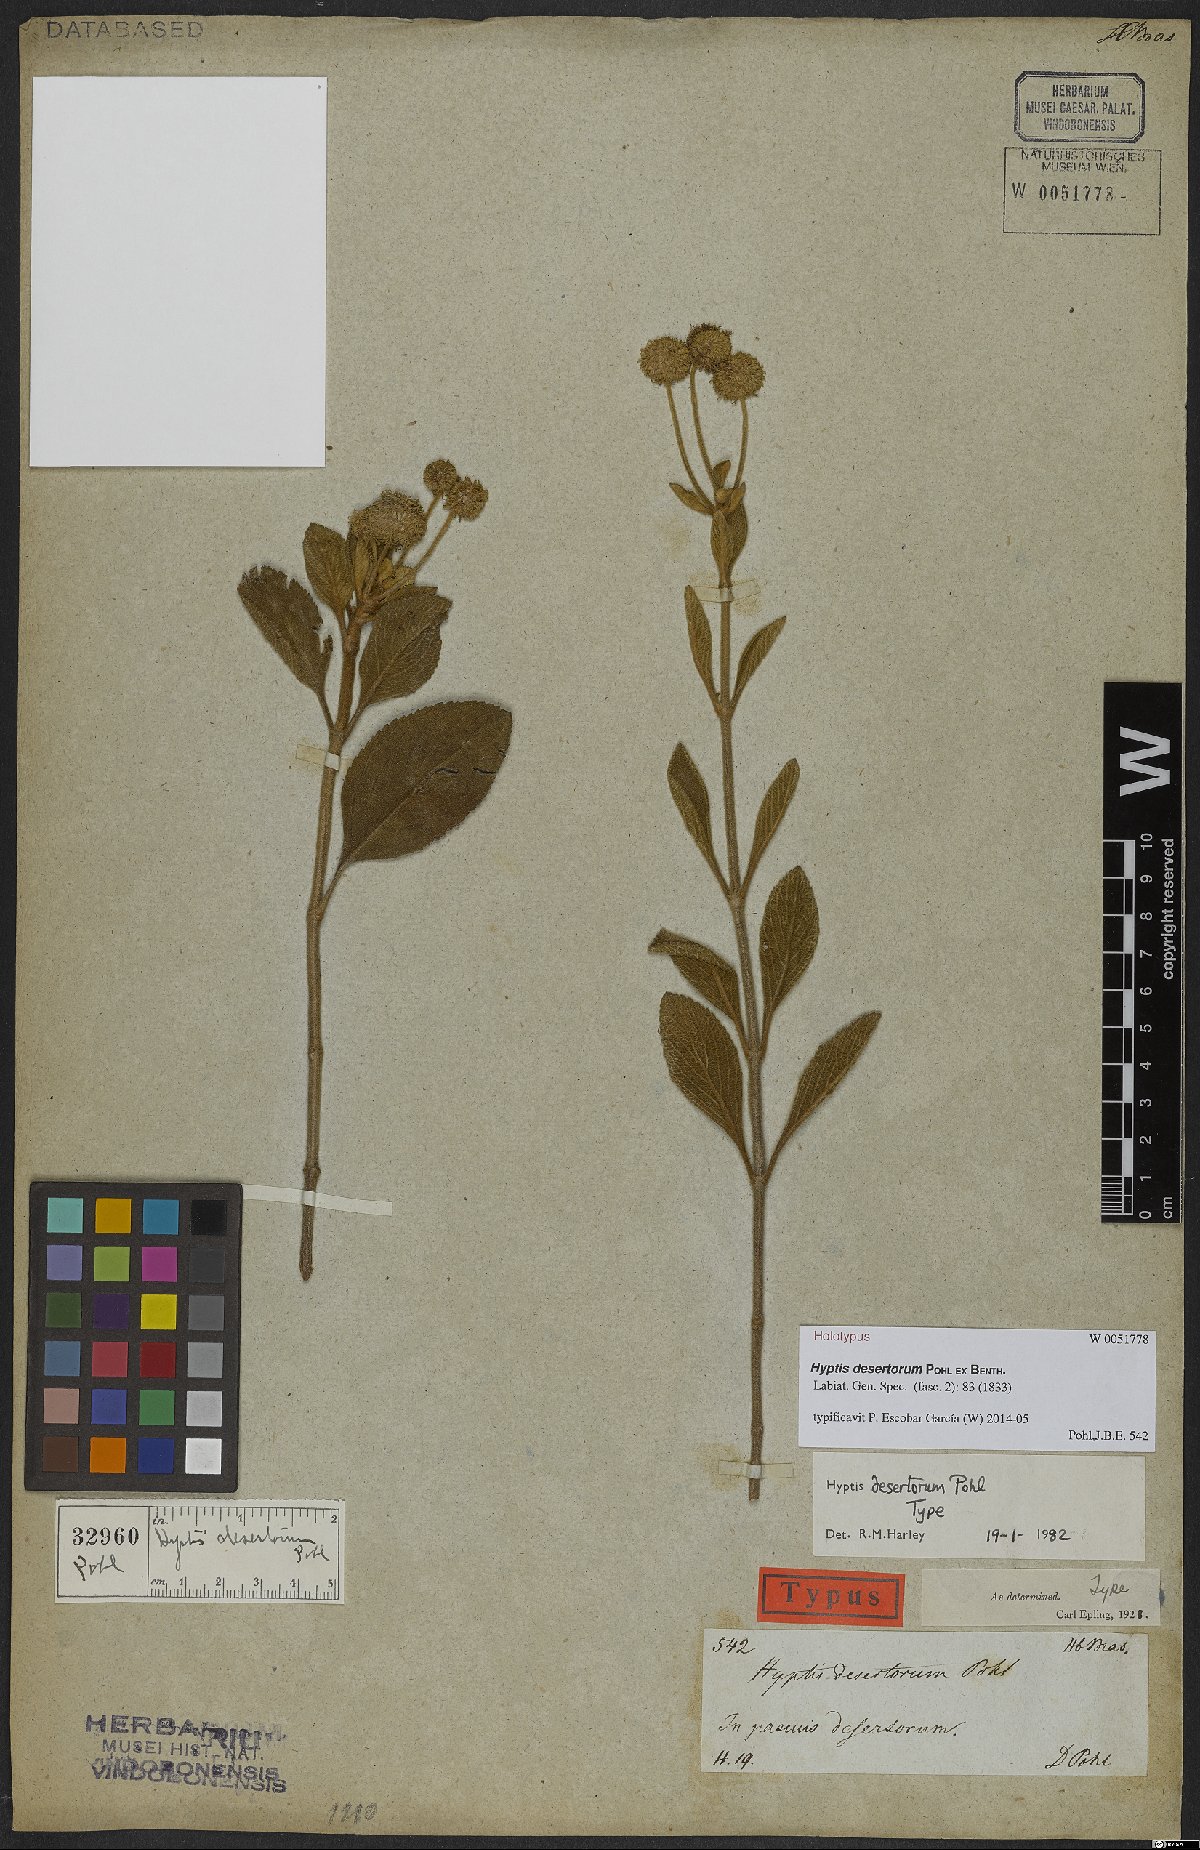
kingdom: Plantae
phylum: Tracheophyta
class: Magnoliopsida
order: Lamiales
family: Lamiaceae
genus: Cyanocephalus
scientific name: Cyanocephalus desertorum
